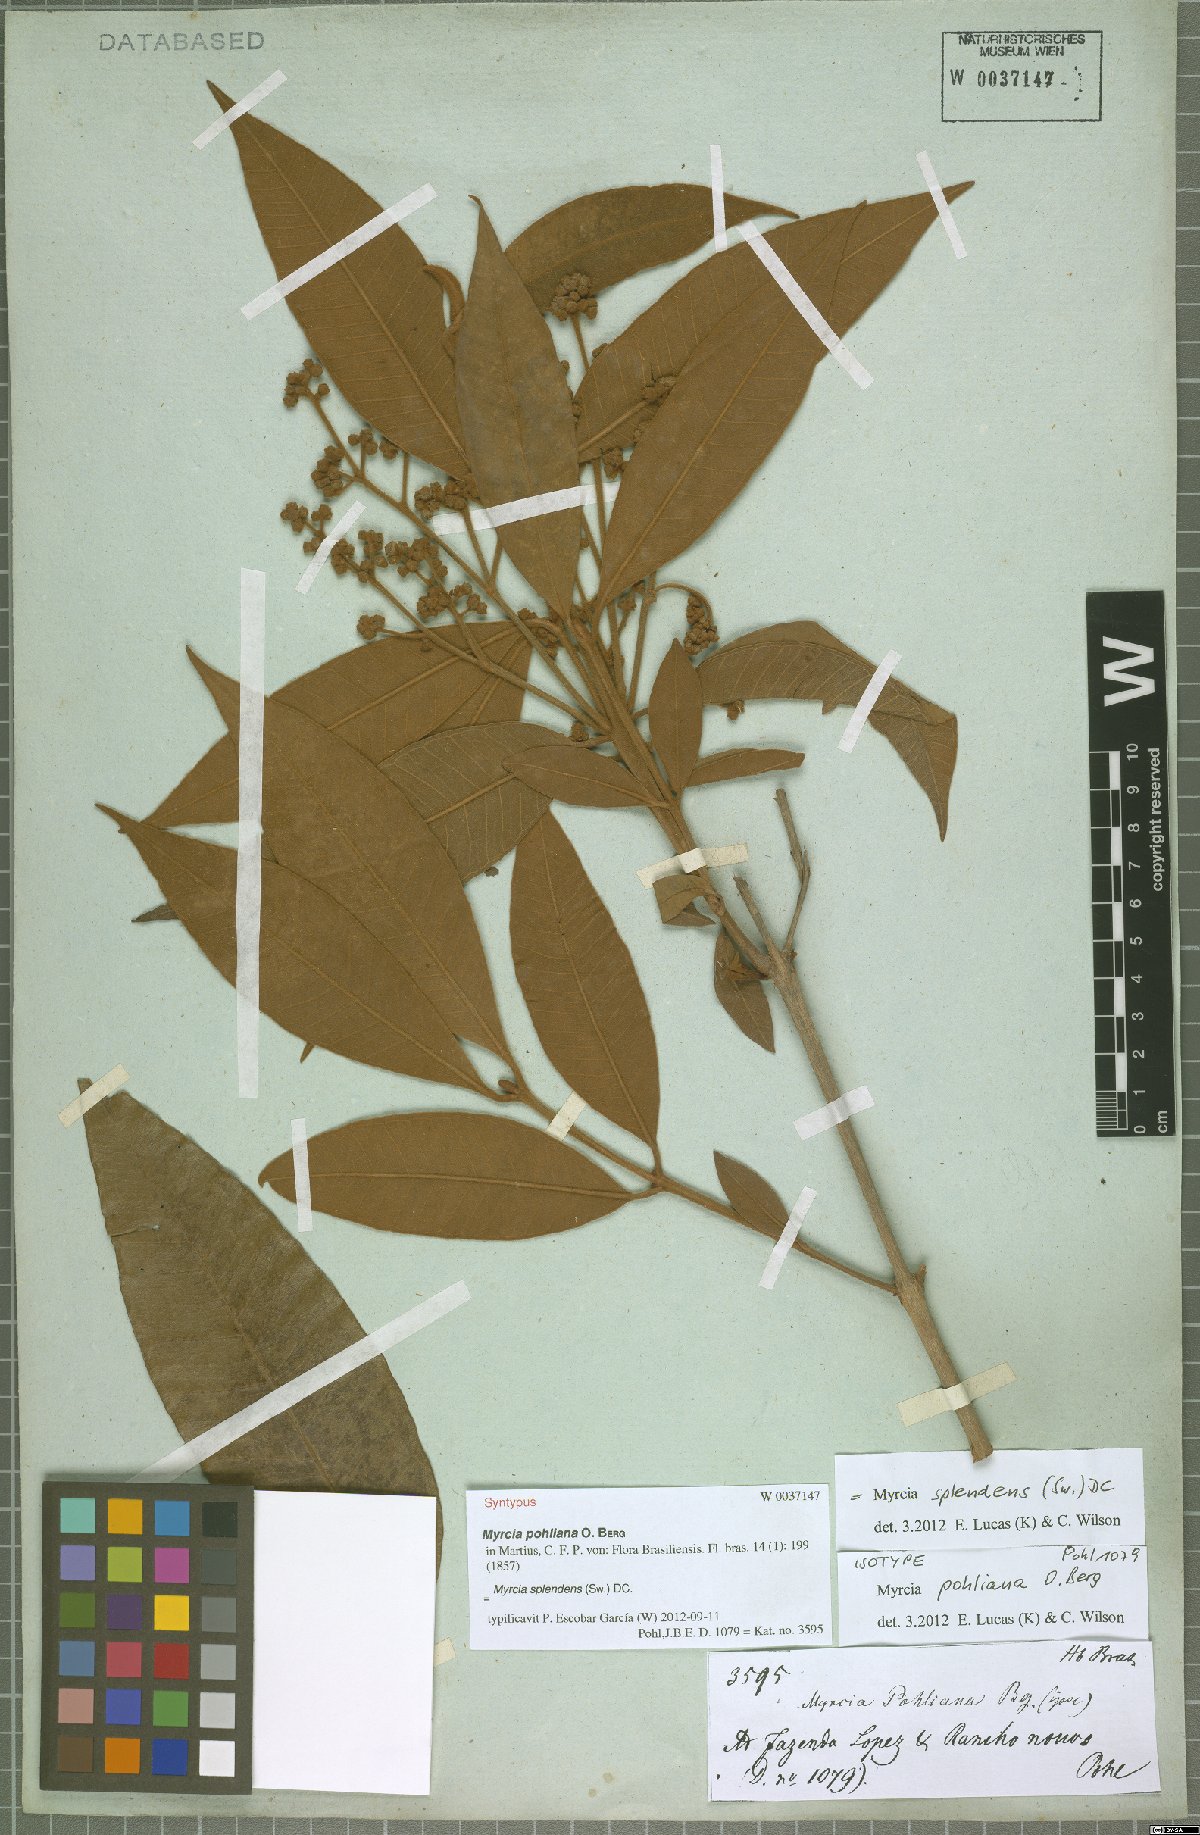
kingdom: Plantae
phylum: Tracheophyta
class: Magnoliopsida
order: Myrtales
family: Myrtaceae
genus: Myrcia
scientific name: Myrcia splendens
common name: Surinam cherry
